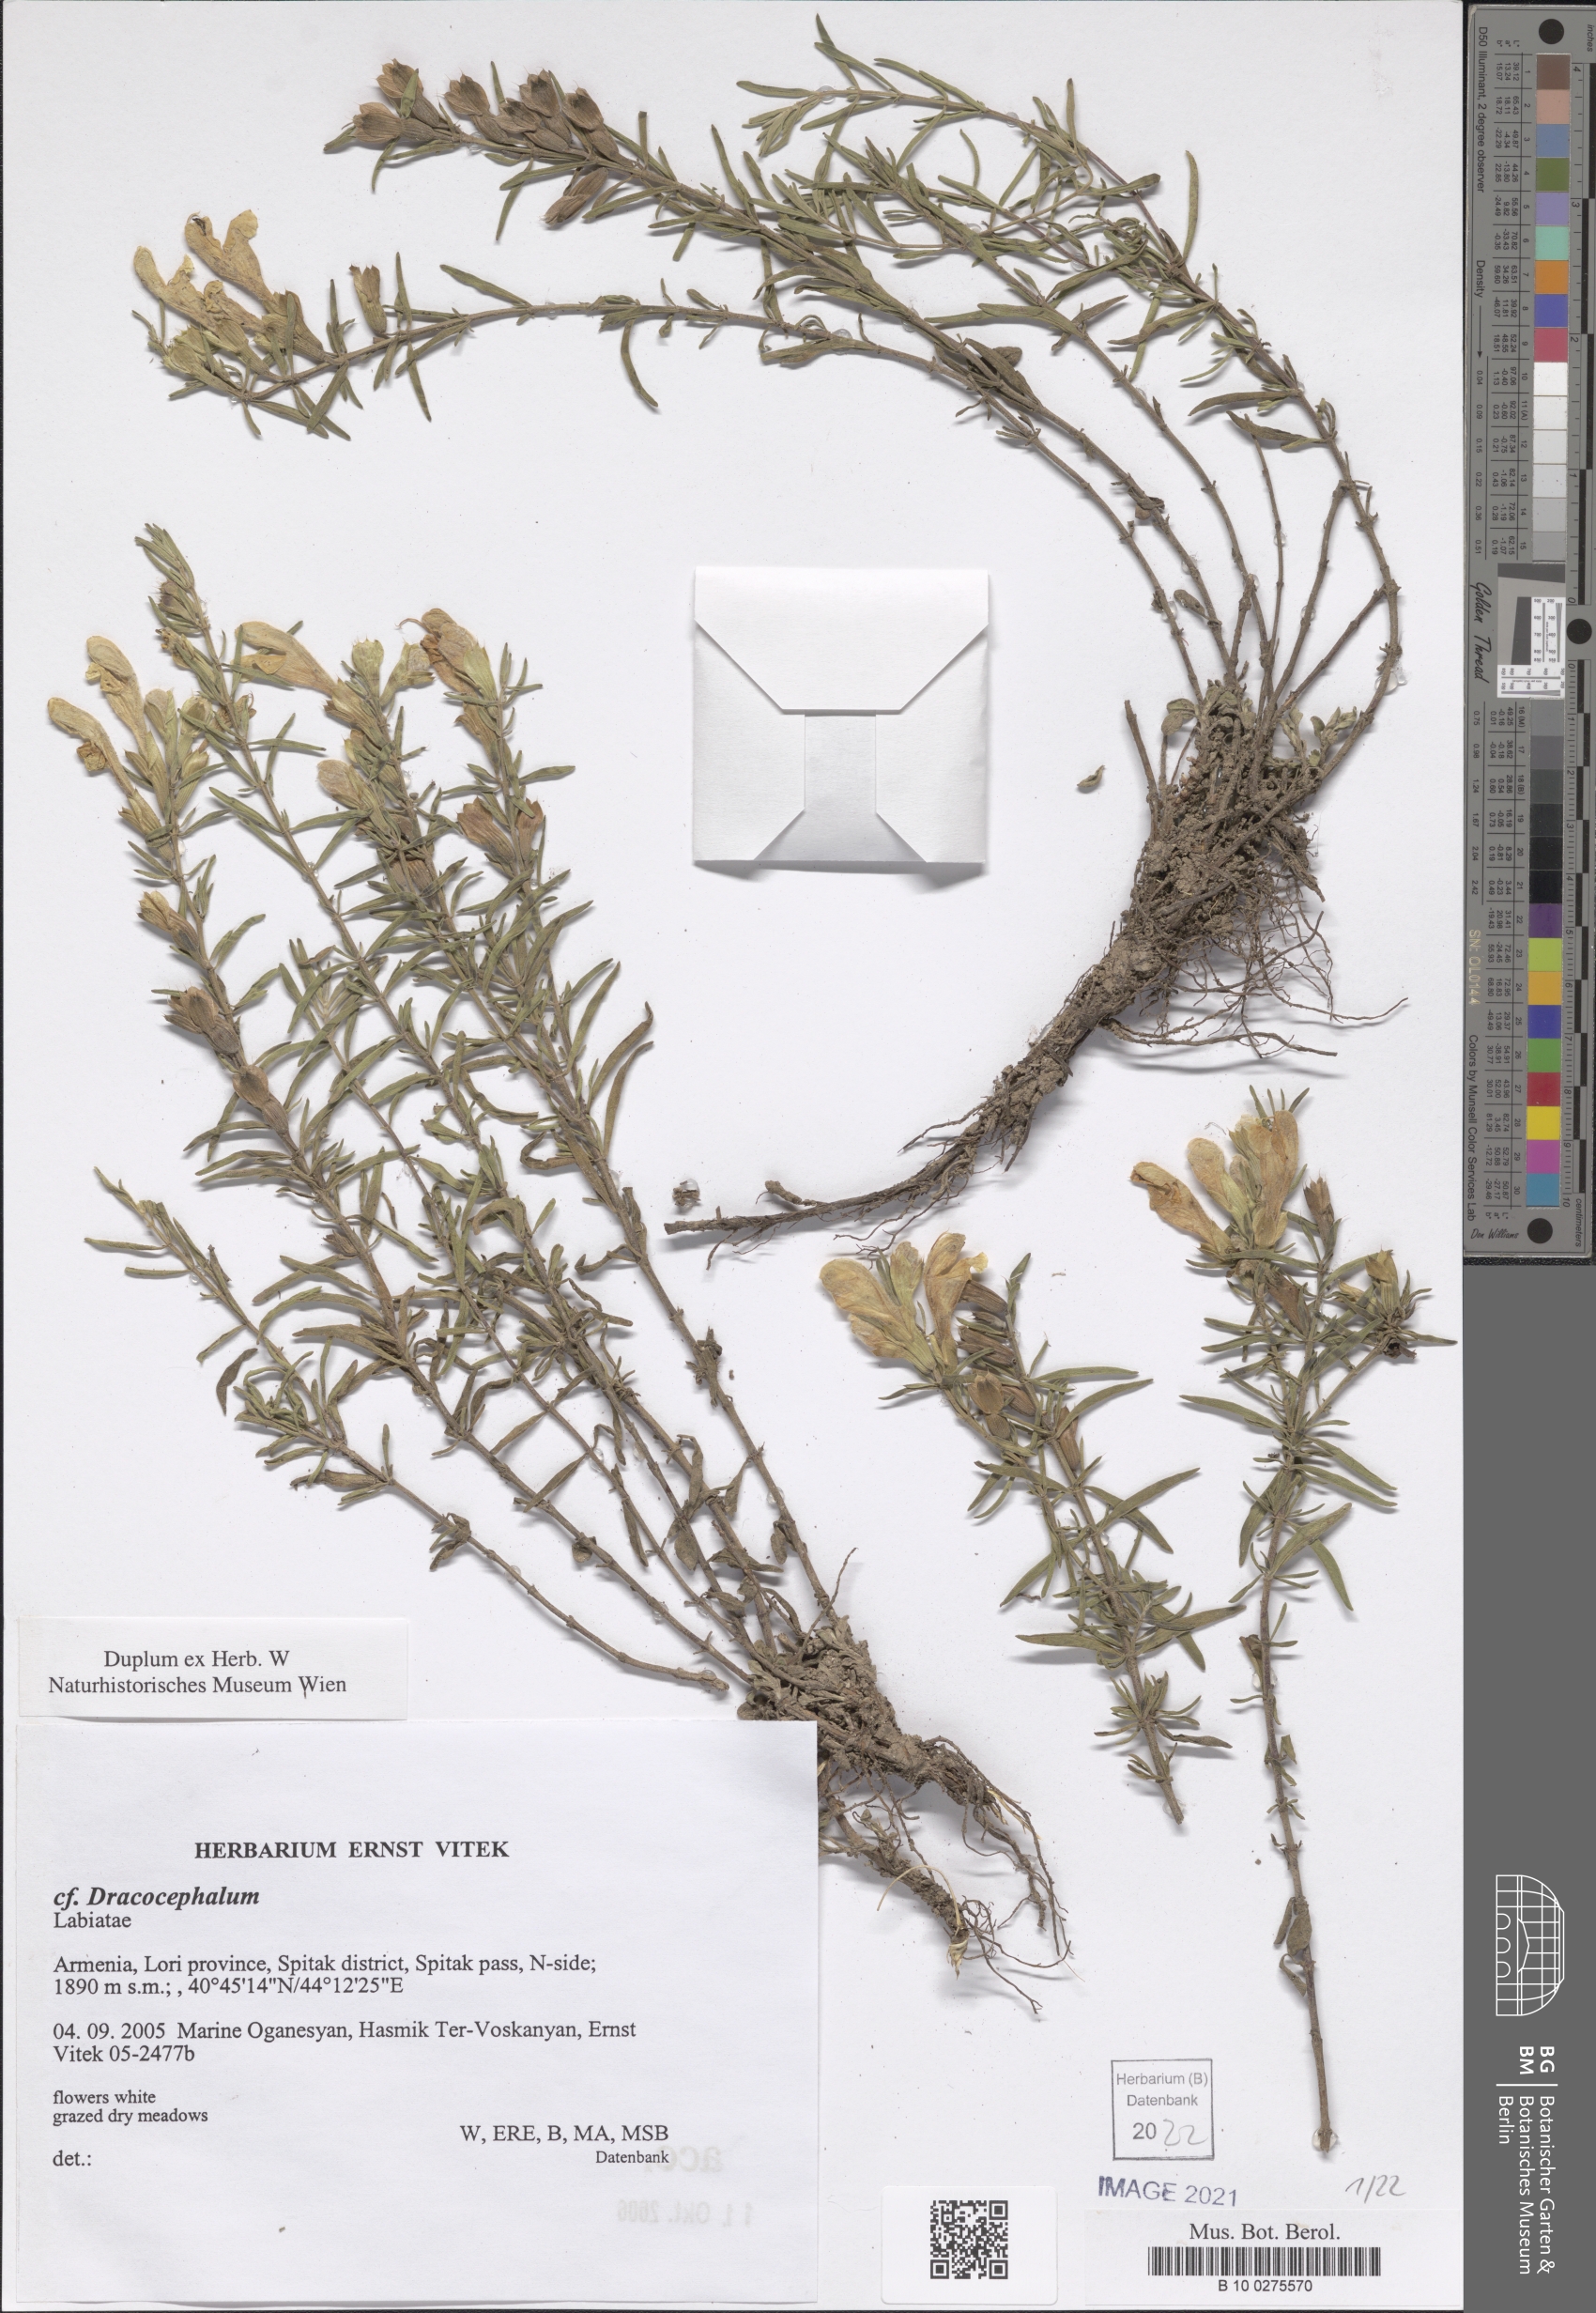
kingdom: Plantae
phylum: Tracheophyta
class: Magnoliopsida
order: Lamiales
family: Lamiaceae
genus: Dracocephalum
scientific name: Dracocephalum
